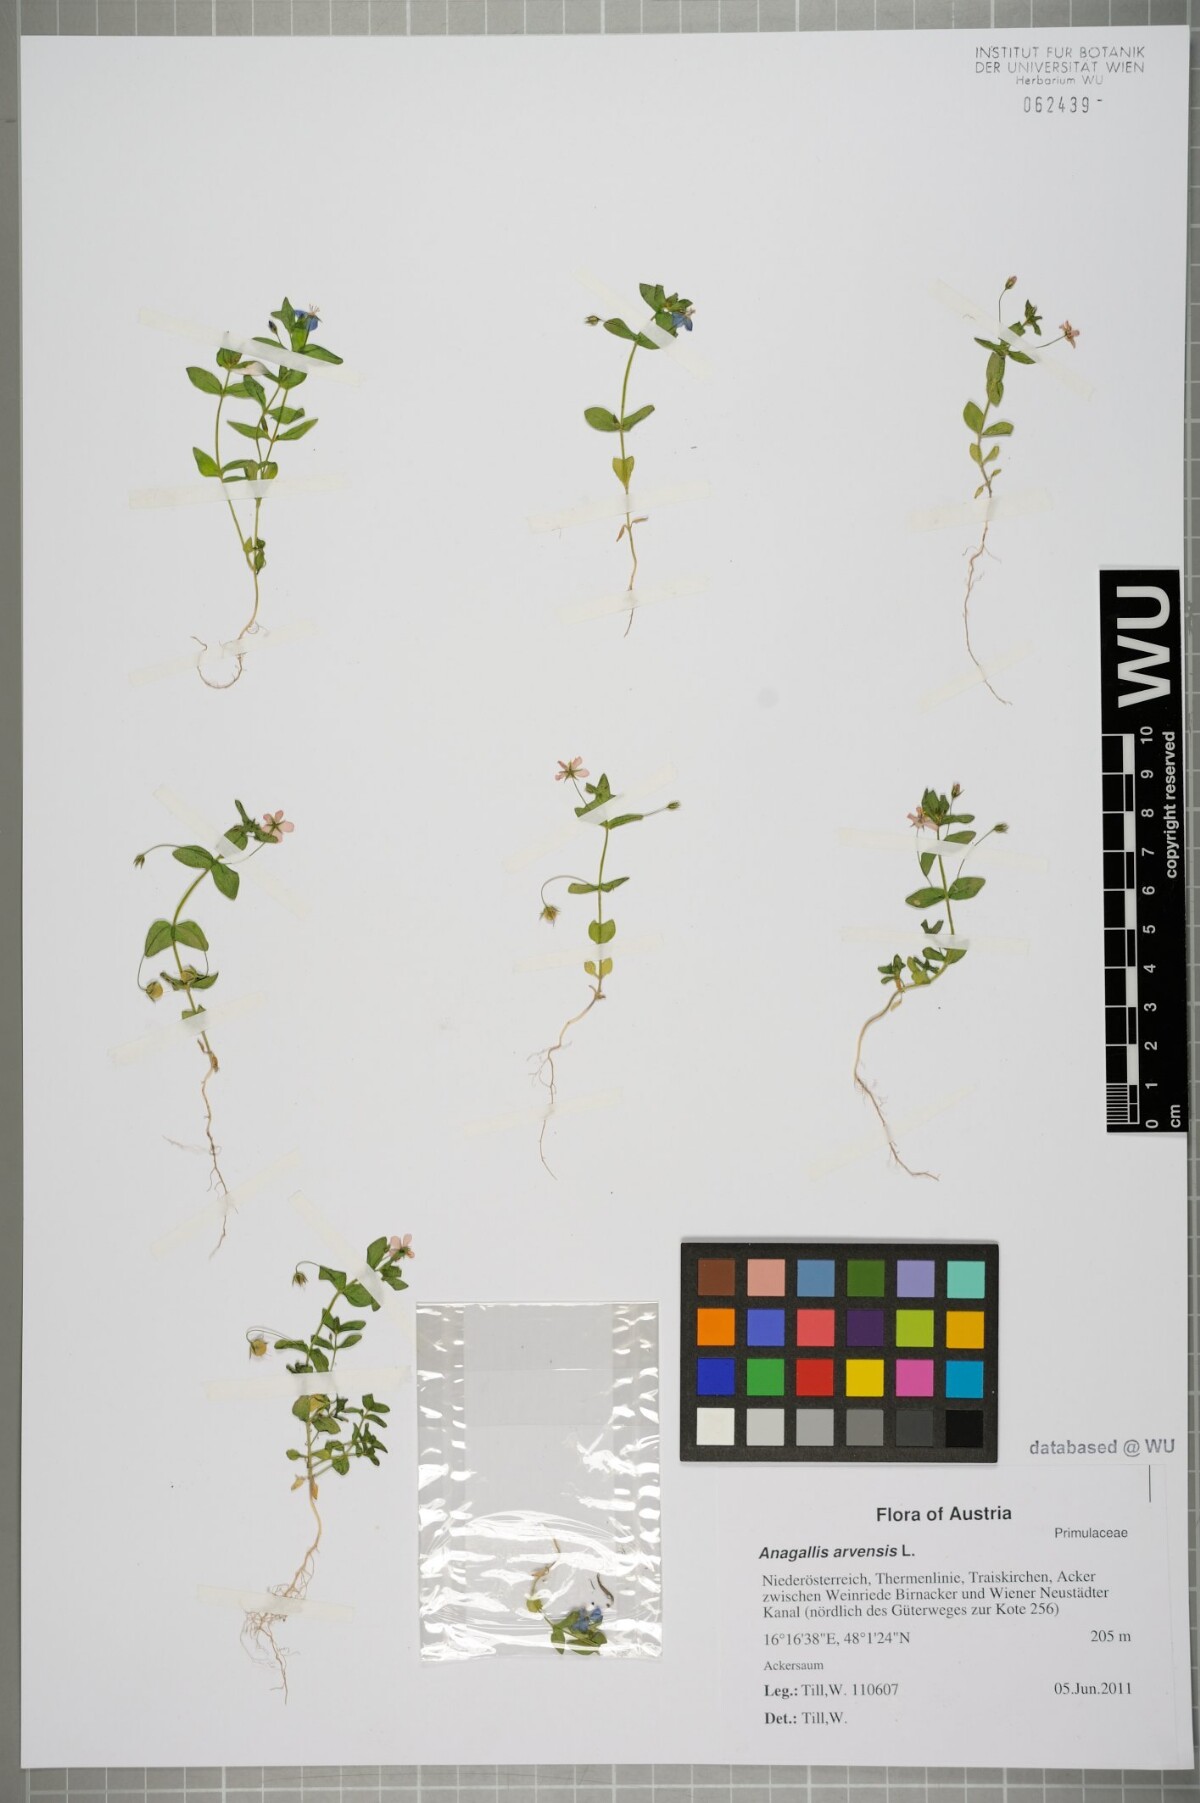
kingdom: Plantae
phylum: Tracheophyta
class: Magnoliopsida
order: Ericales
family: Primulaceae
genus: Lysimachia
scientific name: Lysimachia arvensis
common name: Scarlet pimpernel
